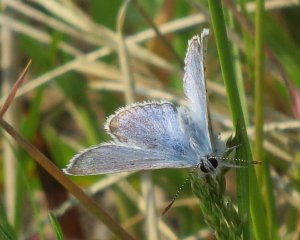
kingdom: Animalia
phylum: Arthropoda
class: Insecta
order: Lepidoptera
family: Lycaenidae
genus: Glaucopsyche
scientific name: Glaucopsyche lygdamus
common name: Silvery Blue
